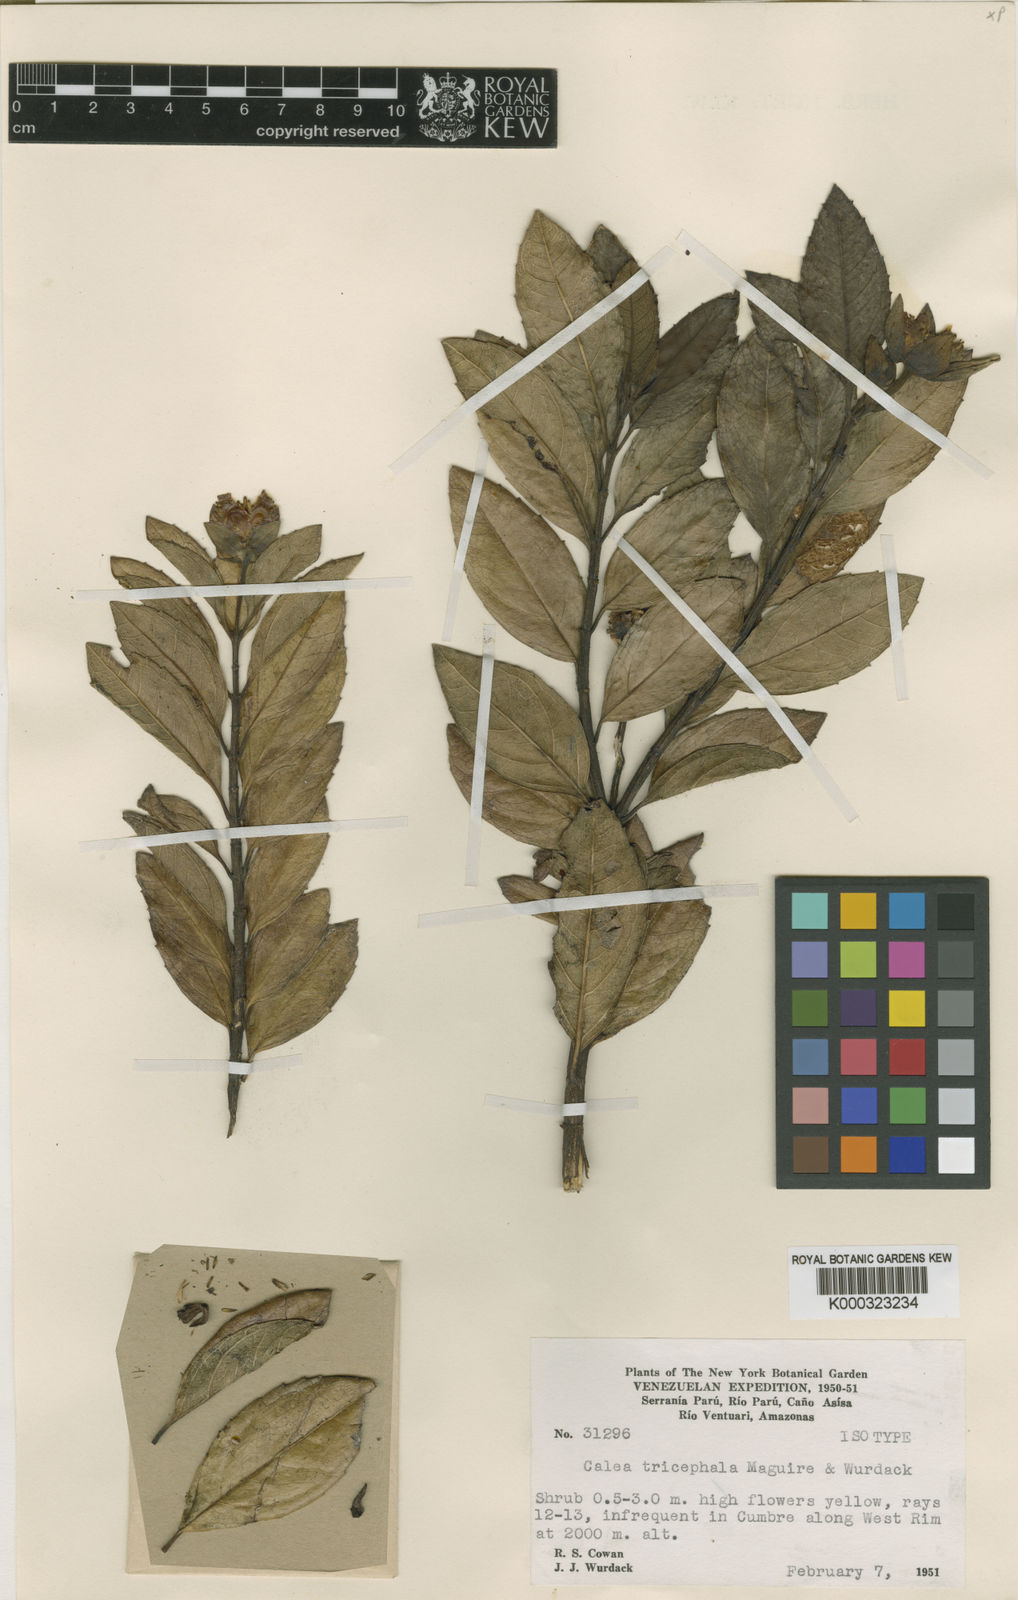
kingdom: Plantae
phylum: Tracheophyta
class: Magnoliopsida
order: Asterales
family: Asteraceae
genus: Calea
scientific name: Calea tricephala
